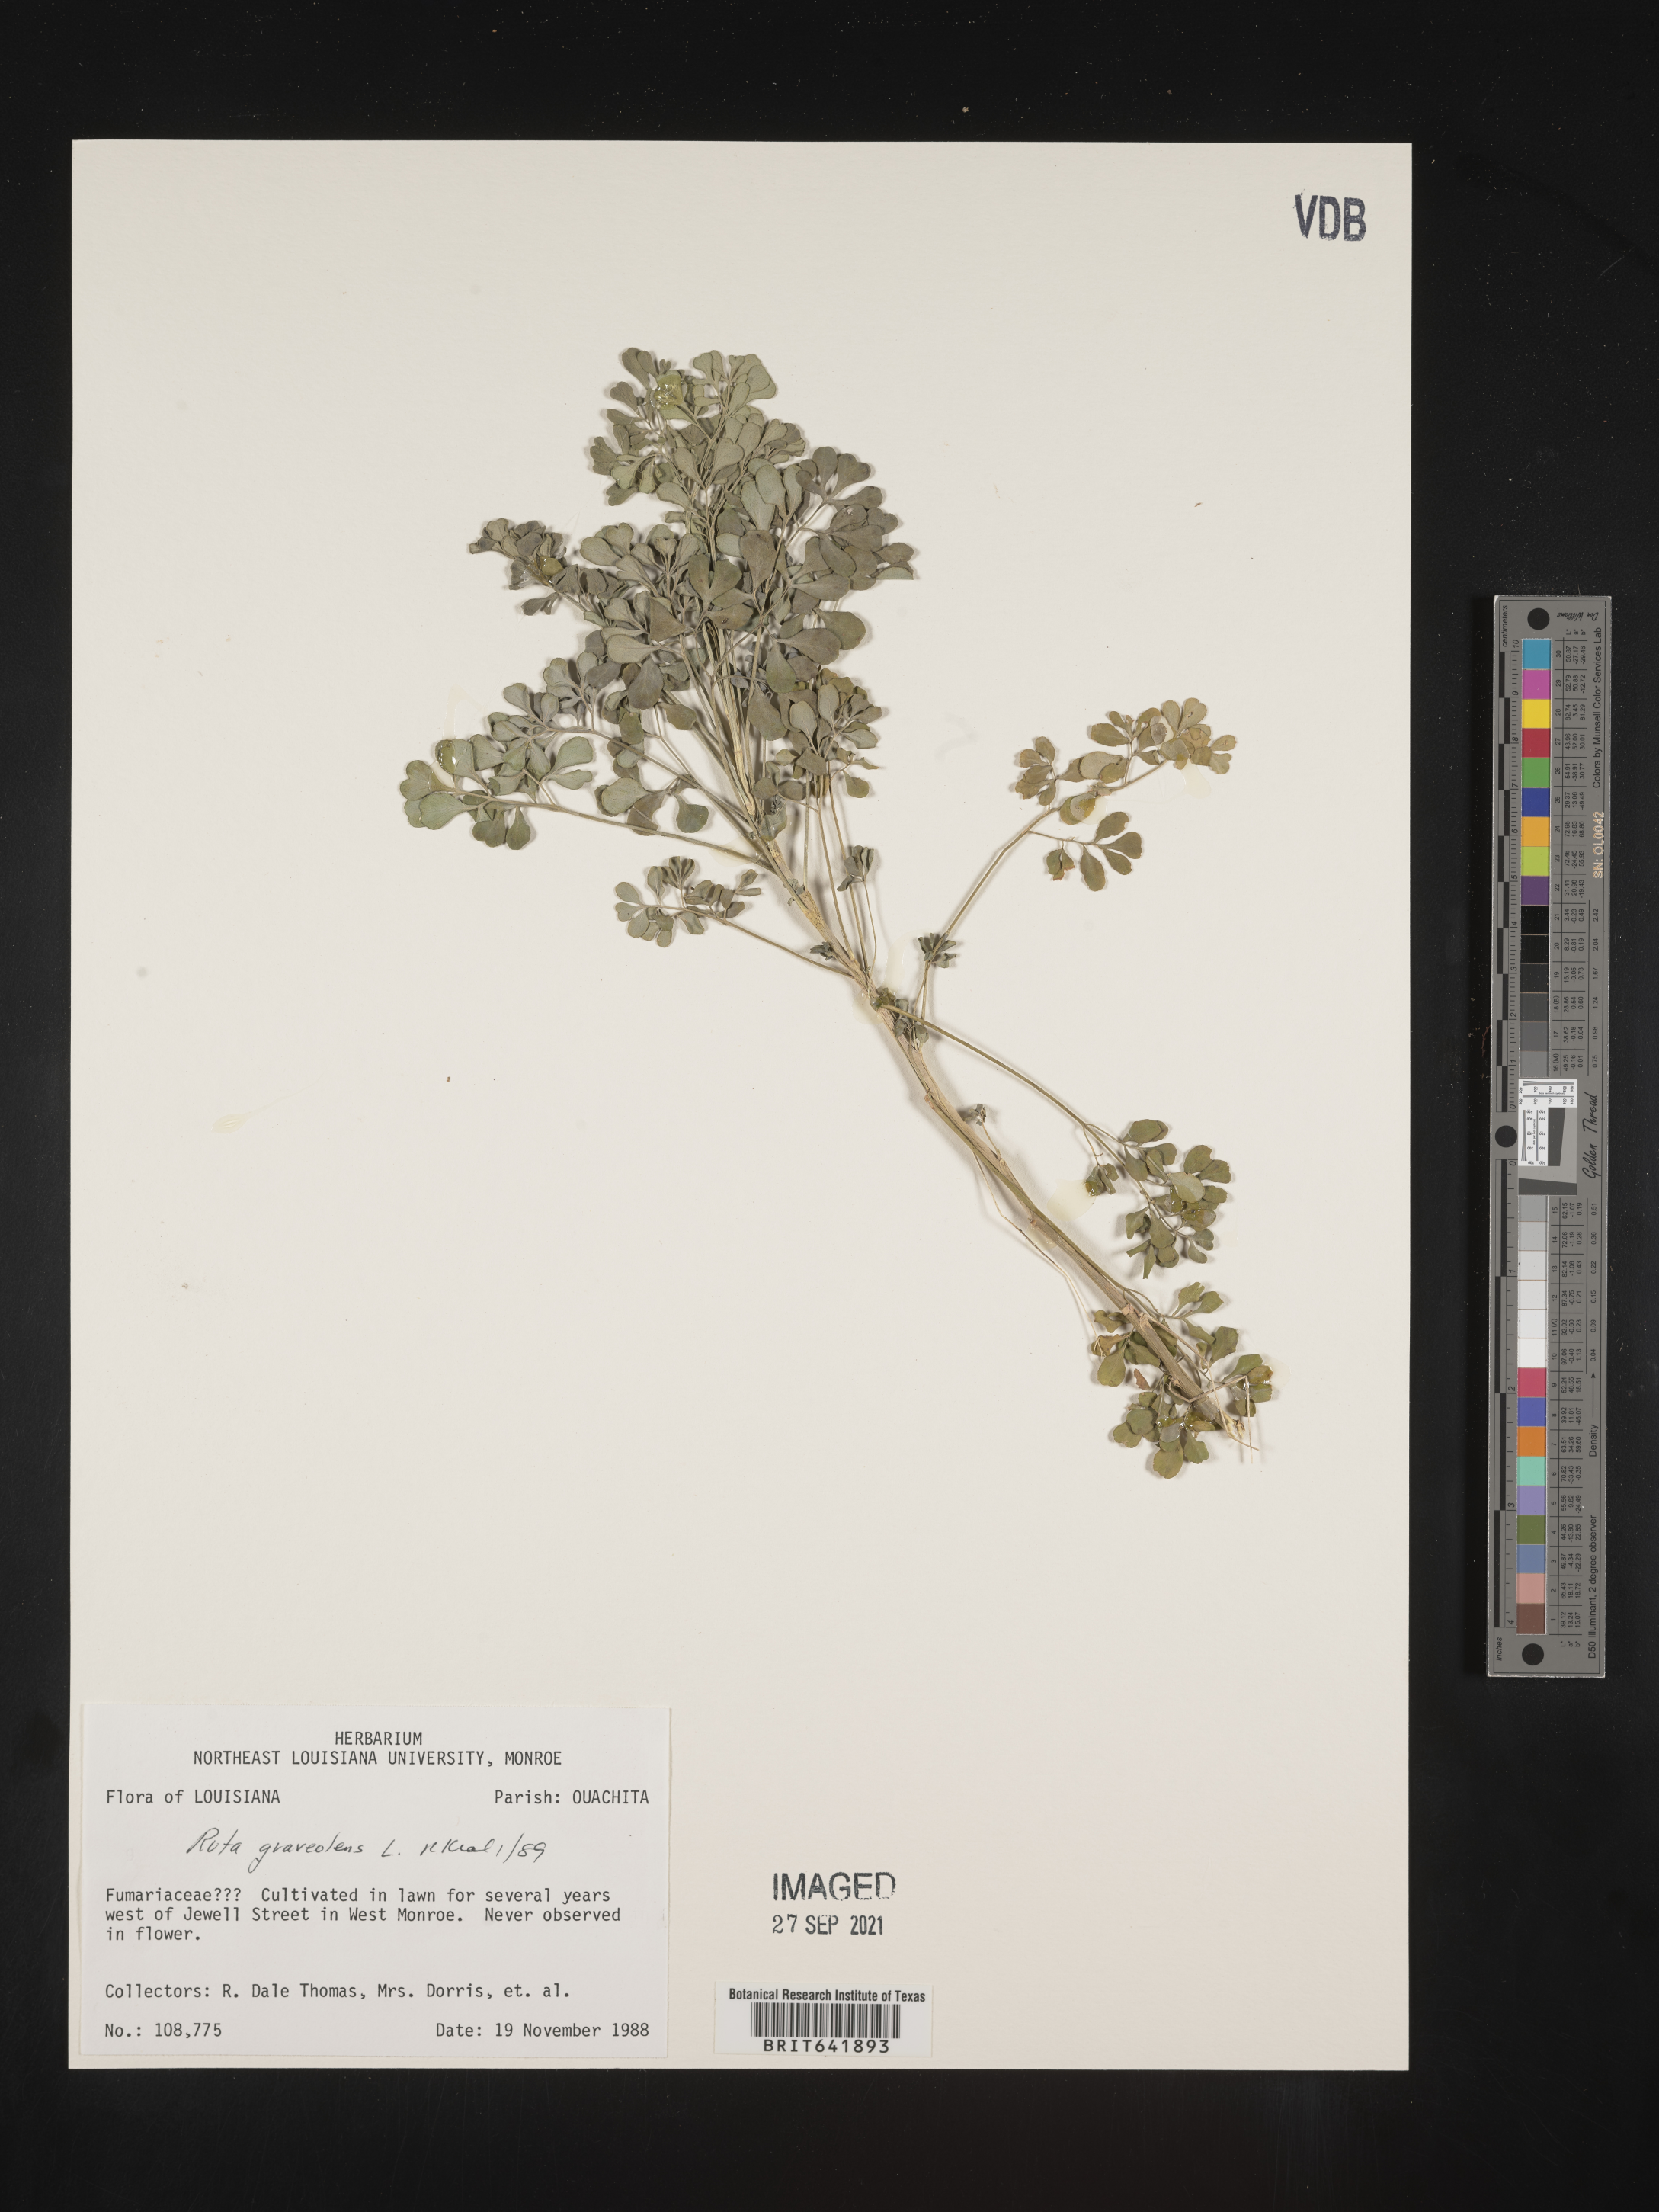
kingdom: Plantae
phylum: Tracheophyta
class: Magnoliopsida
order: Sapindales
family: Rutaceae
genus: Ruta
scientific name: Ruta
